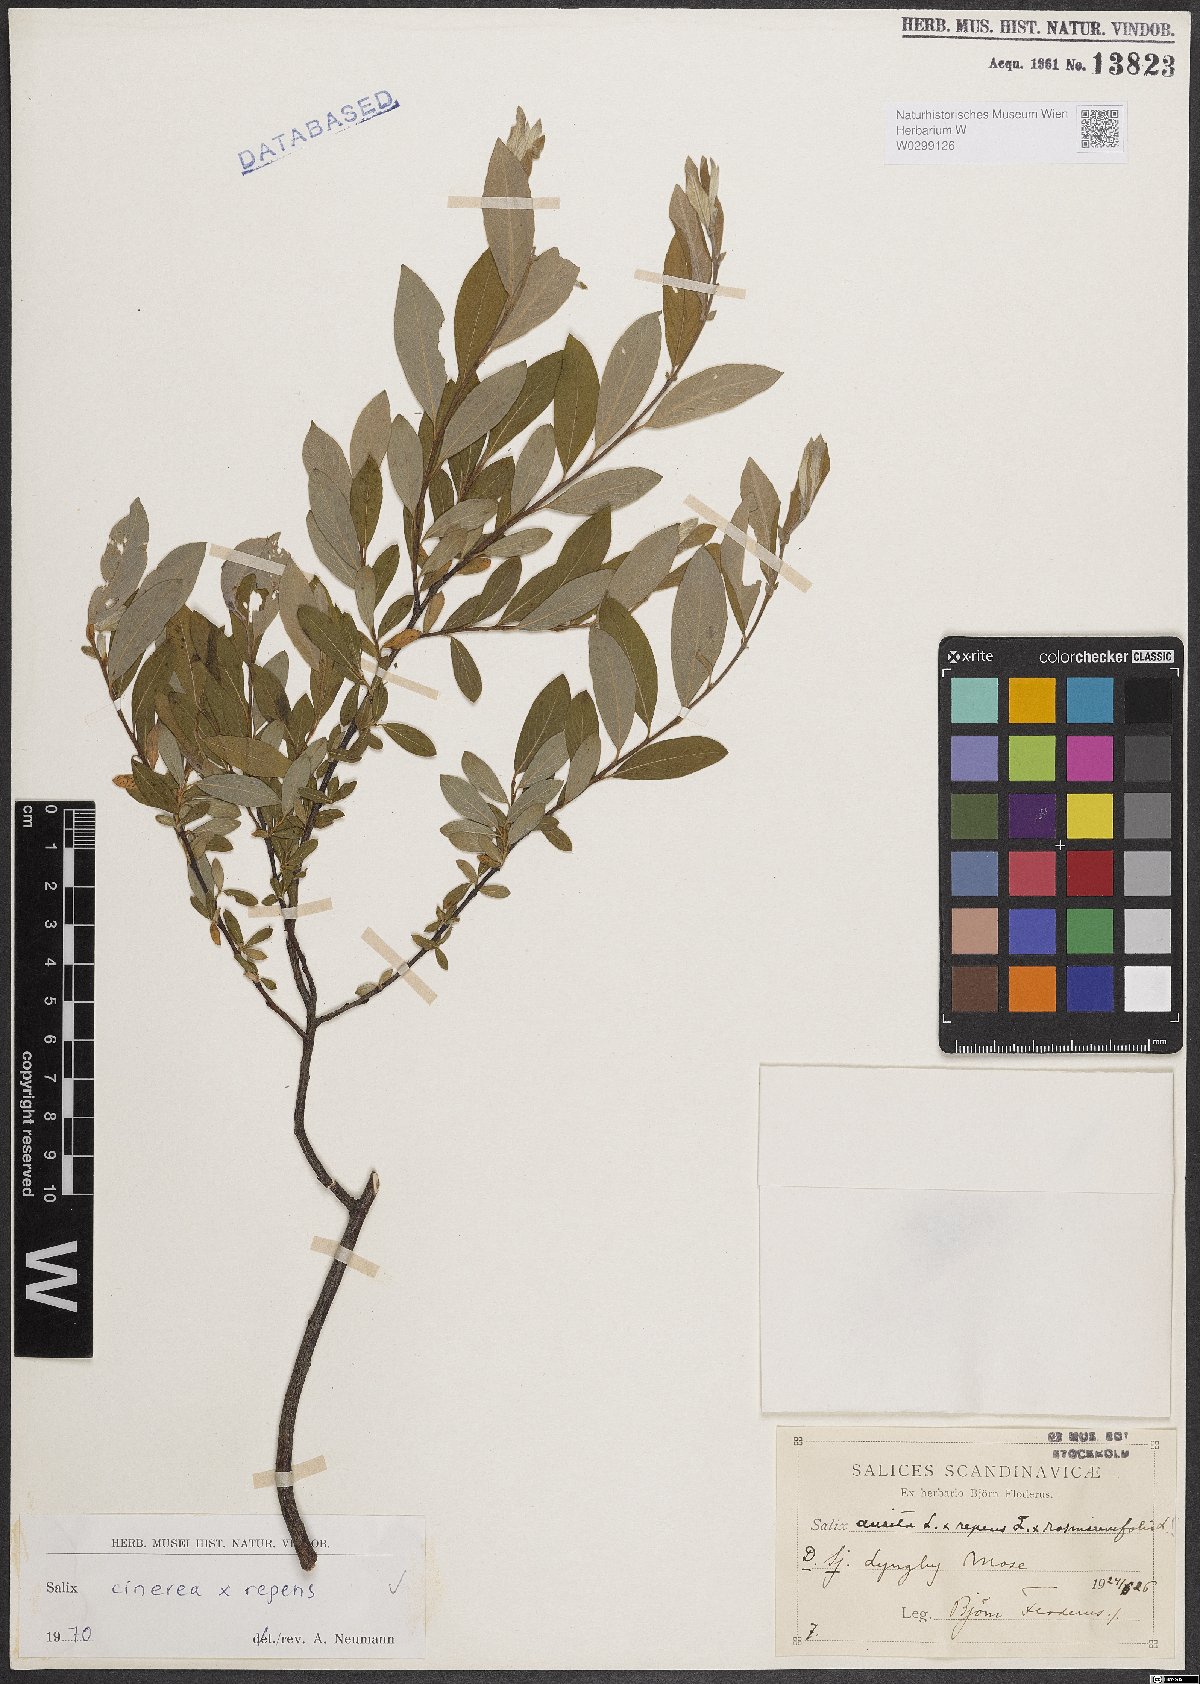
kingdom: Plantae
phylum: Tracheophyta
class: Magnoliopsida
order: Malpighiales
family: Salicaceae
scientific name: Salicaceae
